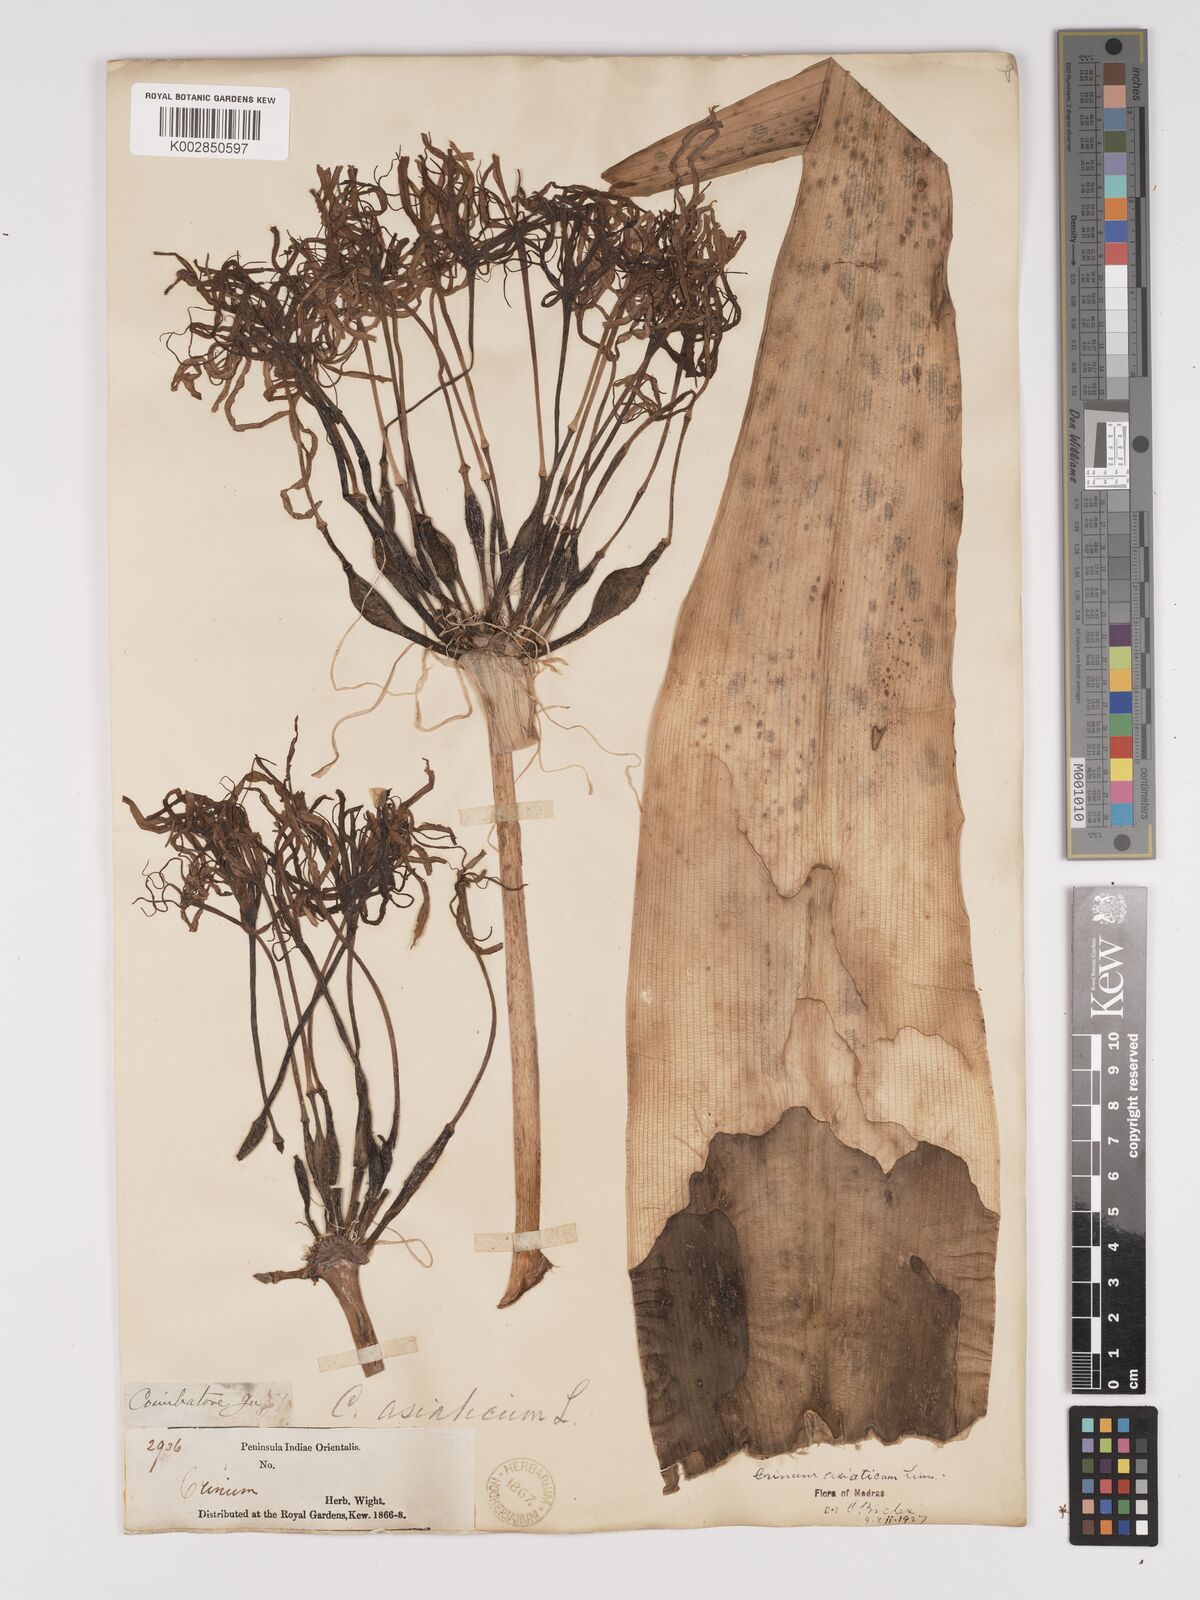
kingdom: Plantae
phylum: Tracheophyta
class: Liliopsida
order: Asparagales
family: Amaryllidaceae
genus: Crinum
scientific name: Crinum asiaticum
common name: Poisonbulb
